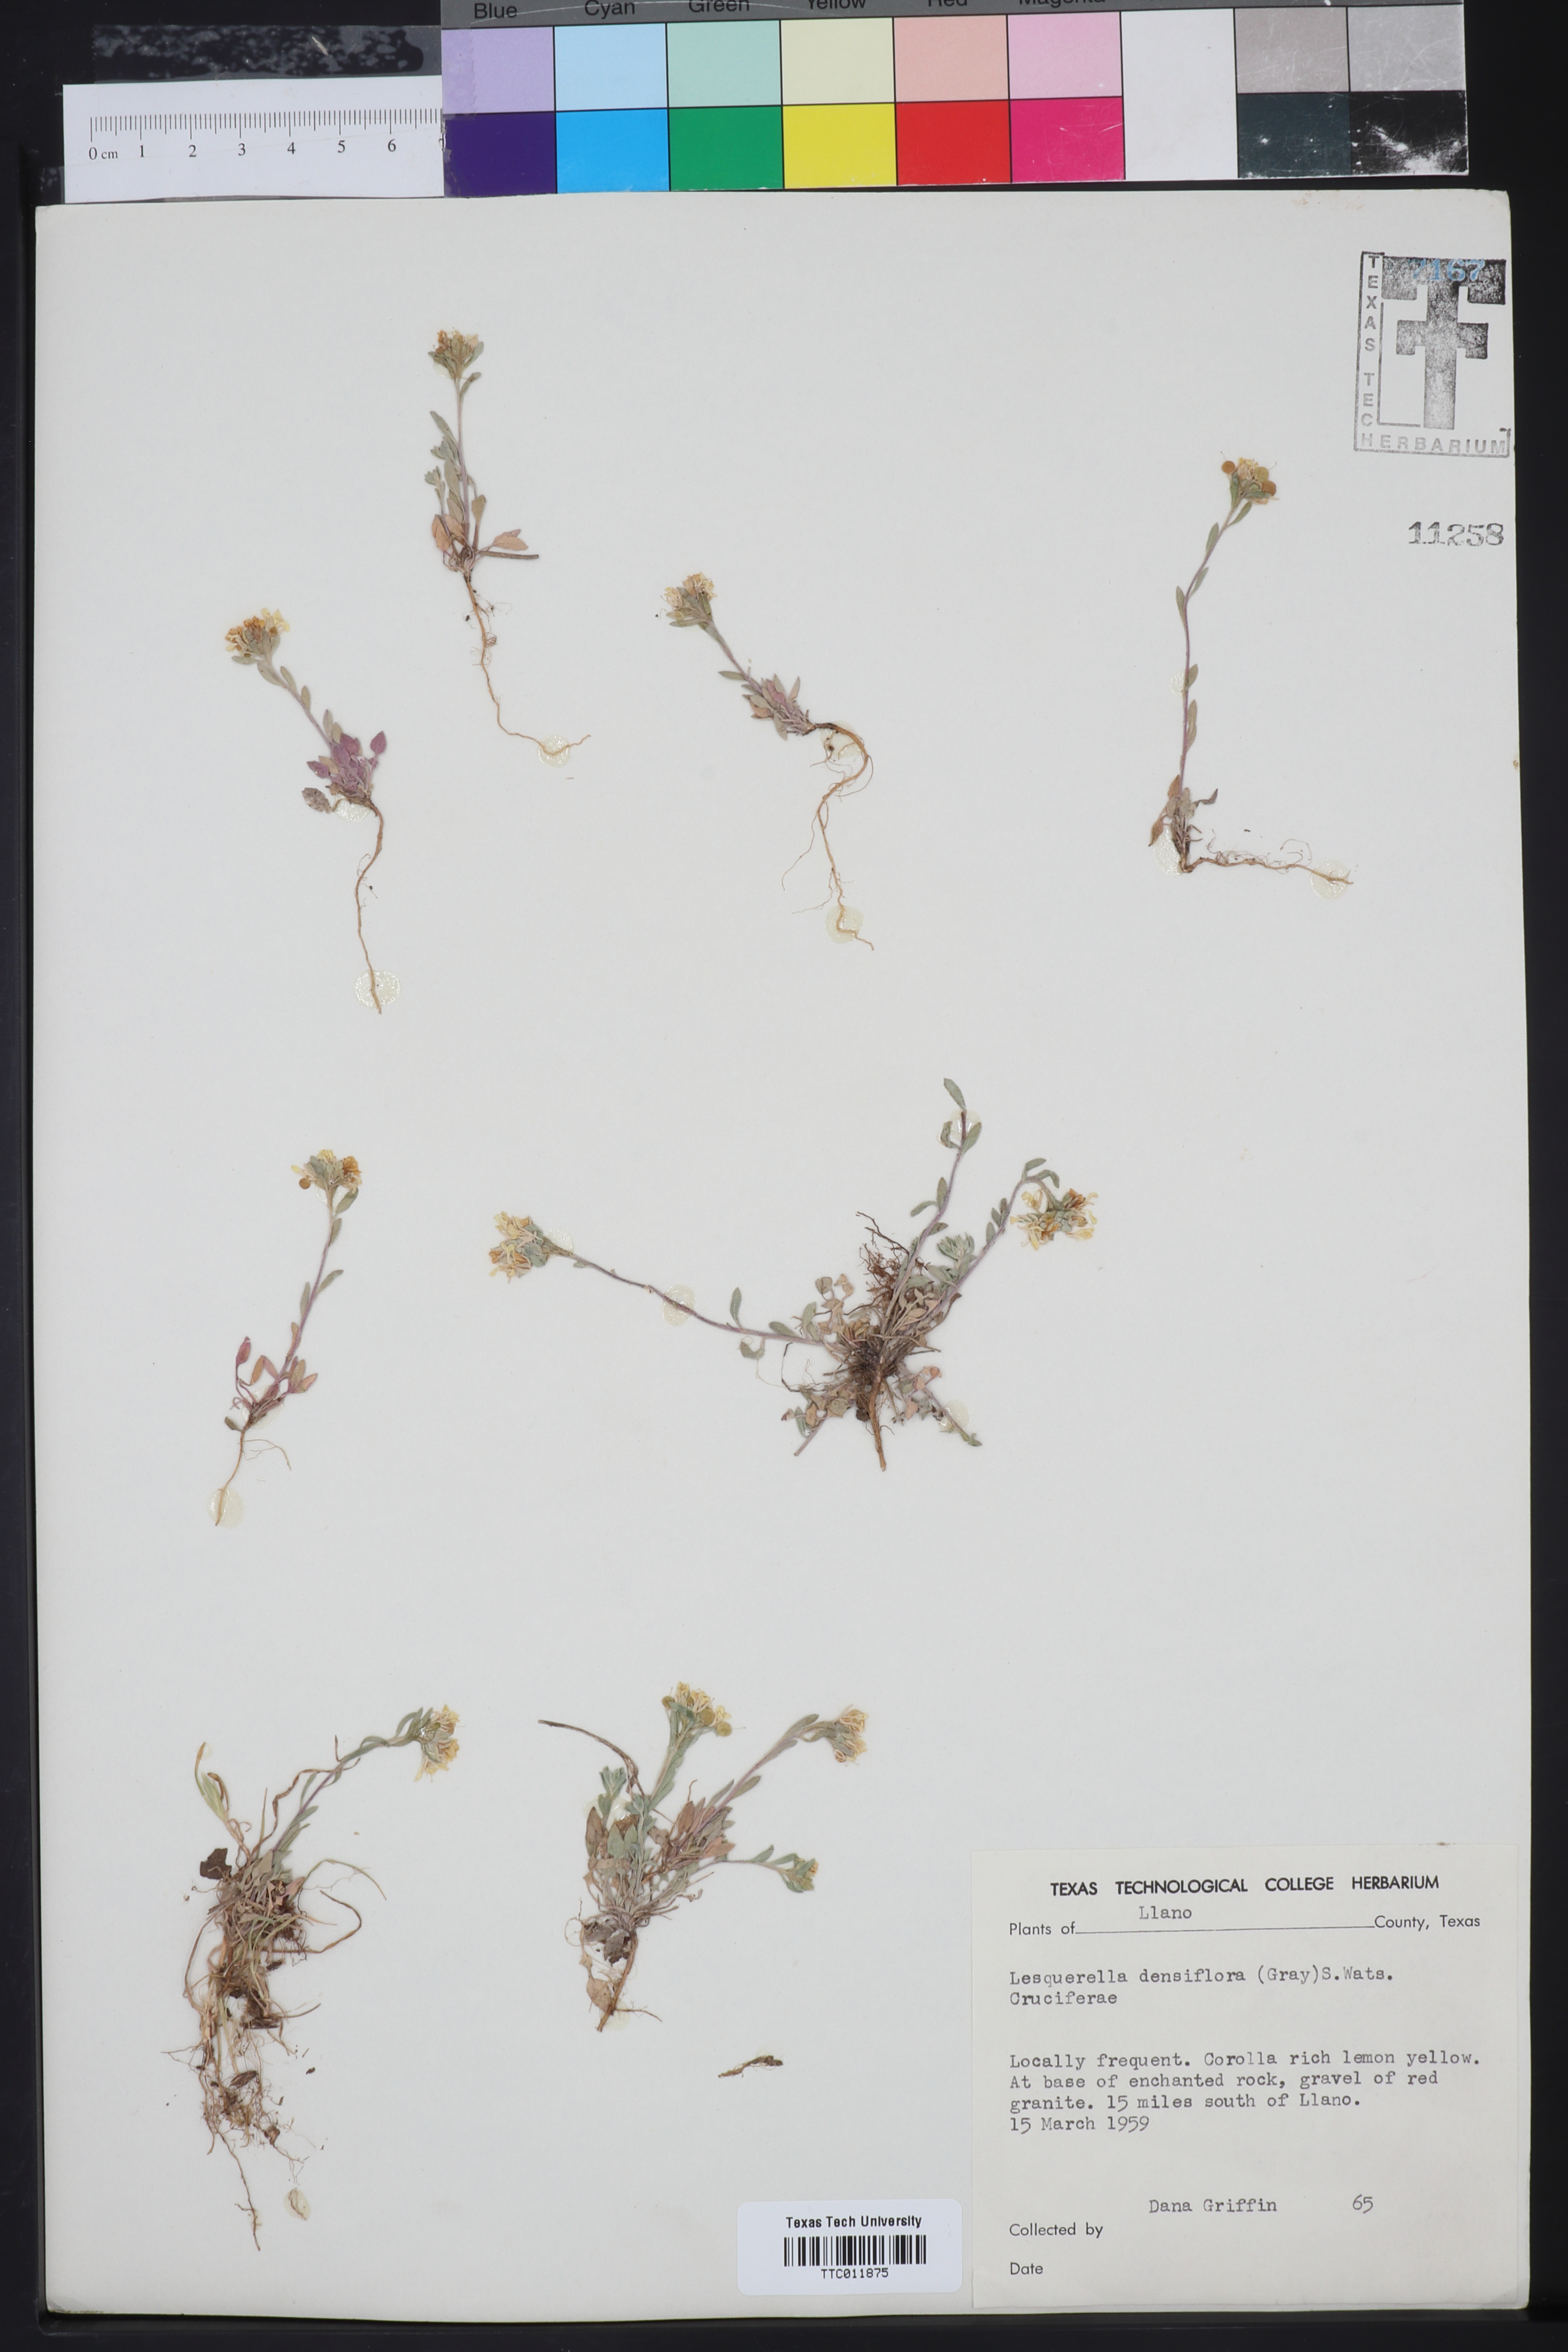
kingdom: Plantae
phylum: Tracheophyta
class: Magnoliopsida
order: Brassicales
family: Brassicaceae
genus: Physaria
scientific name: Physaria densiflora
